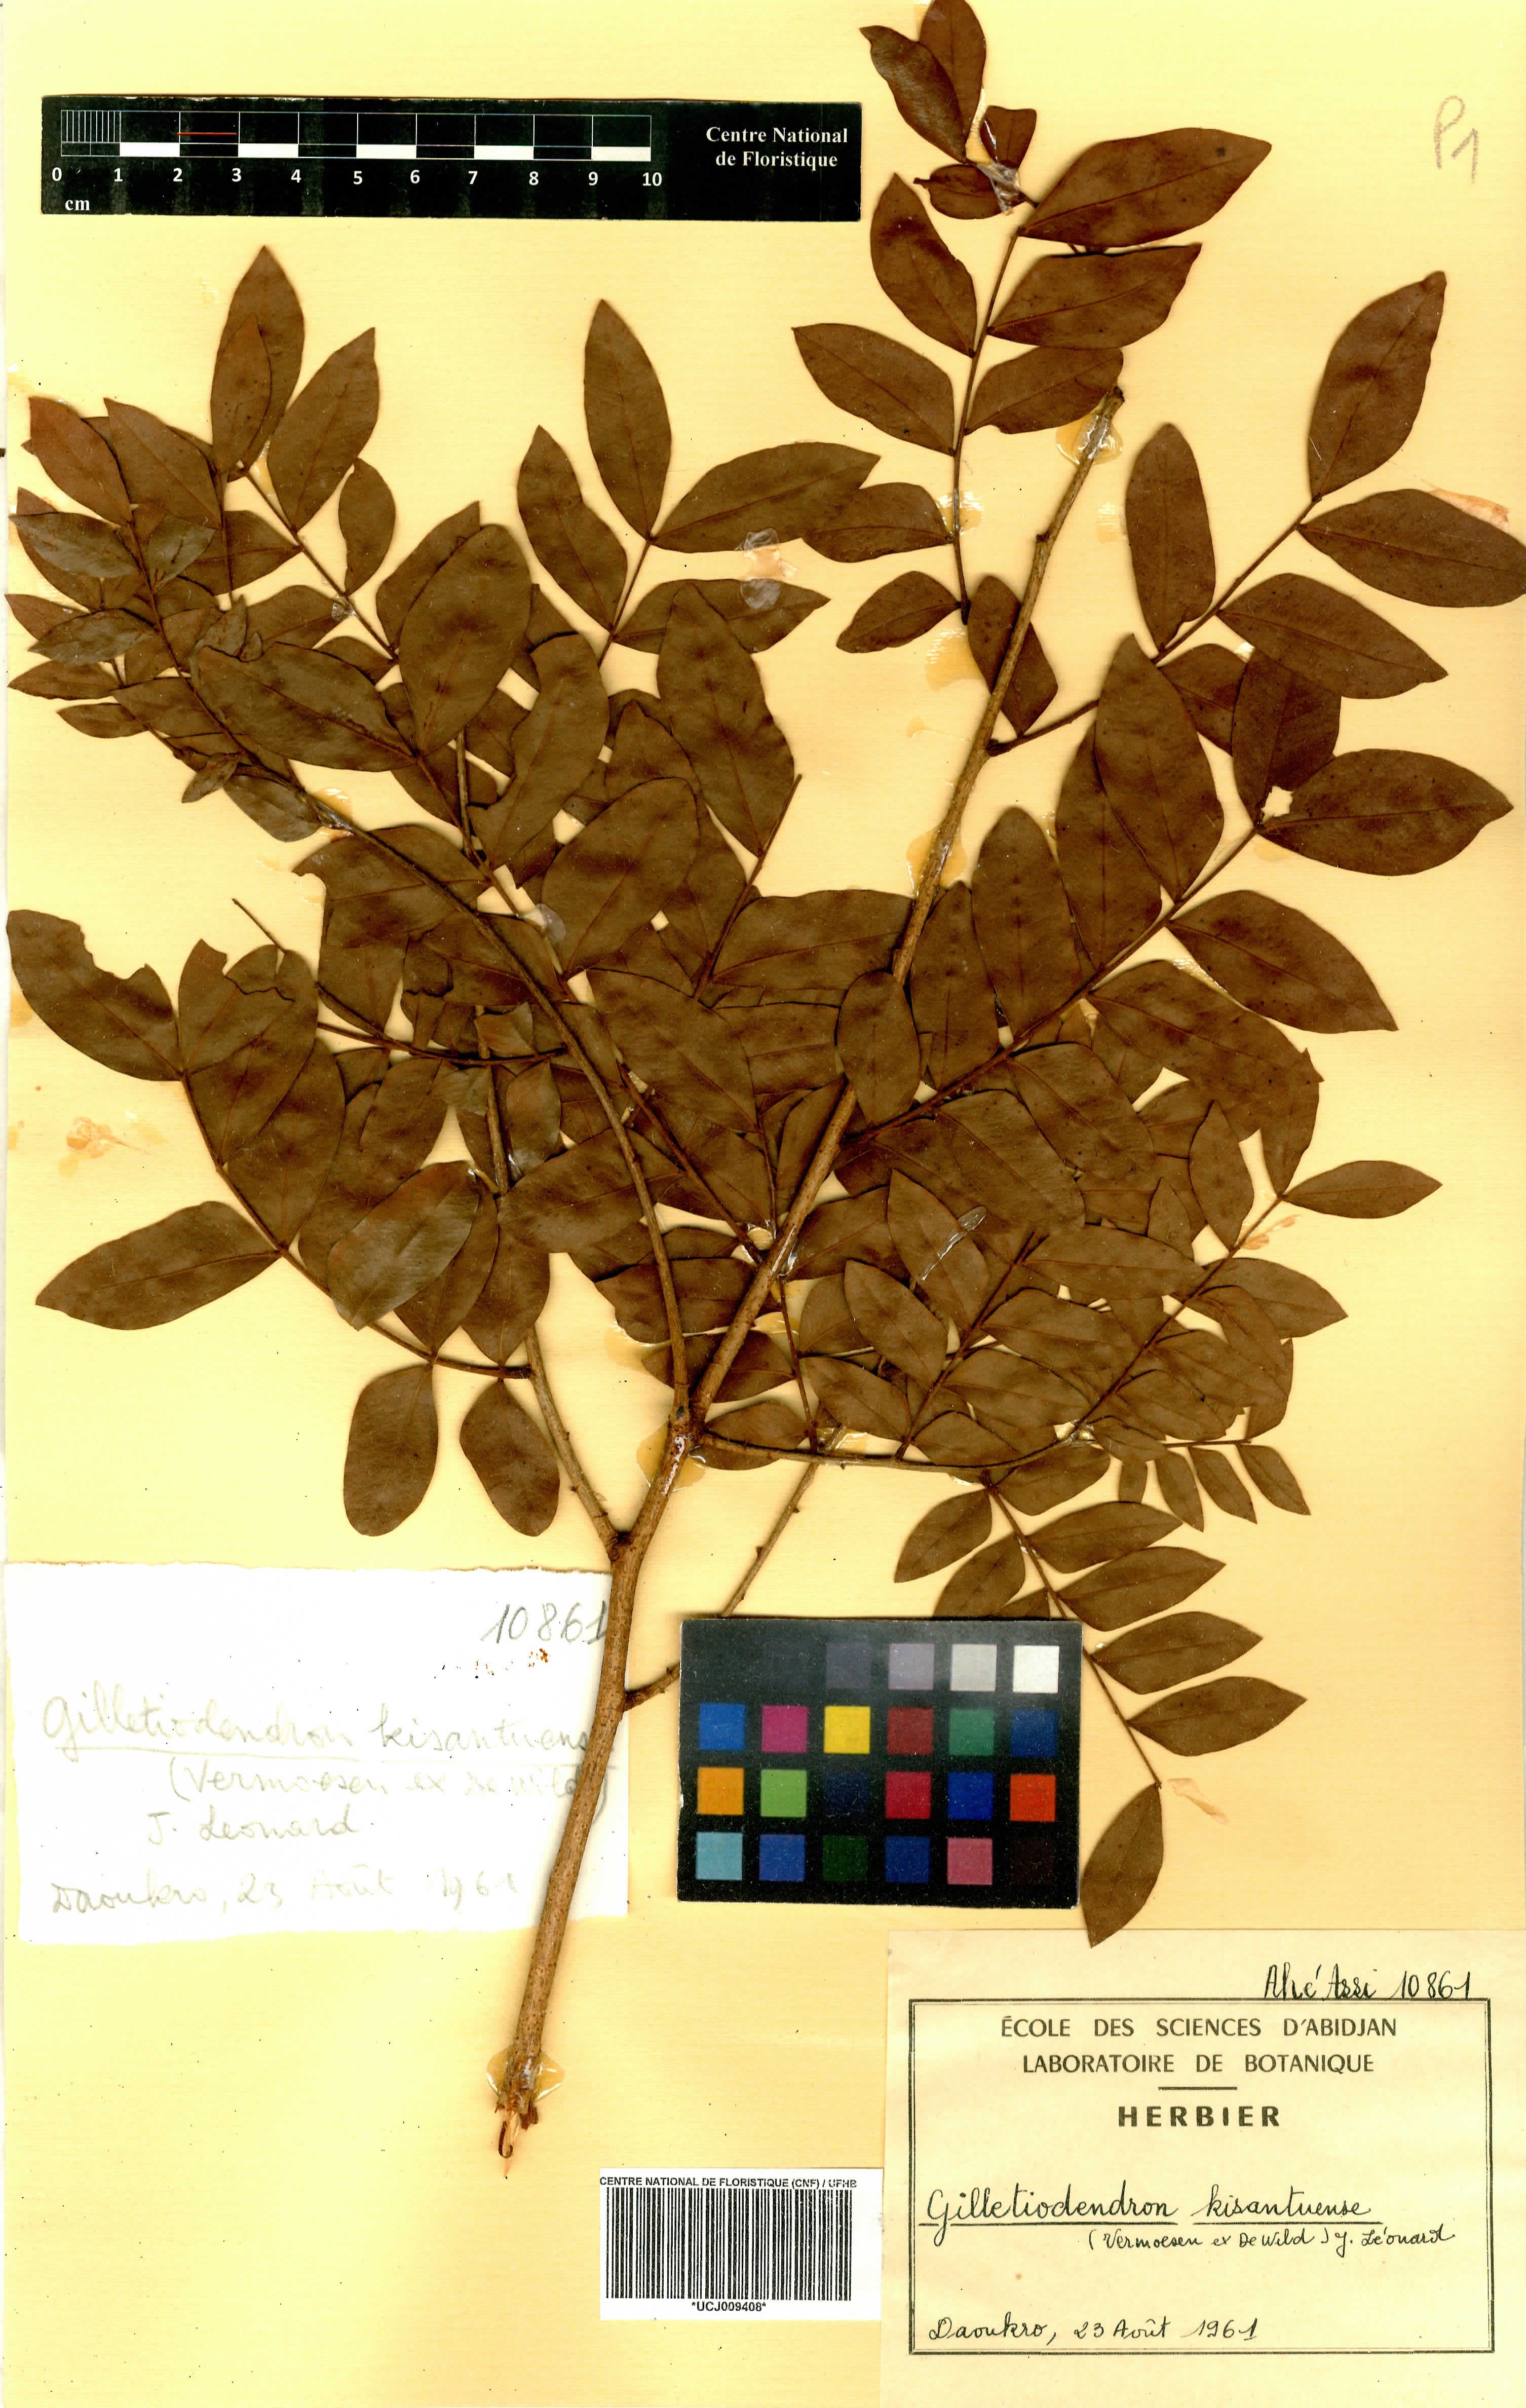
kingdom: Plantae
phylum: Tracheophyta
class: Magnoliopsida
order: Fabales
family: Fabaceae
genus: Gilletiodendron
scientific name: Gilletiodendron kisantuense
